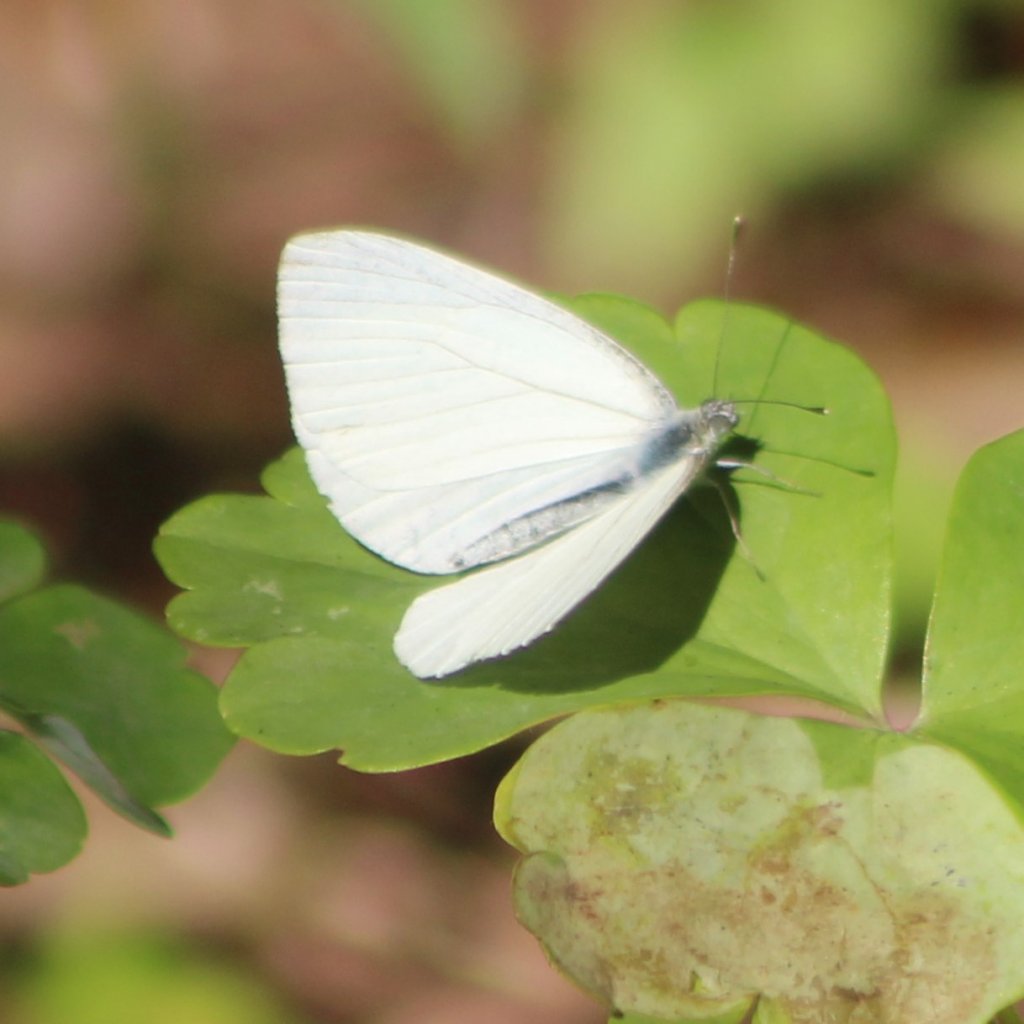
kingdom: Animalia
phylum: Arthropoda
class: Insecta
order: Lepidoptera
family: Pieridae
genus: Pieris
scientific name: Pieris oleracea
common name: Mustard White
